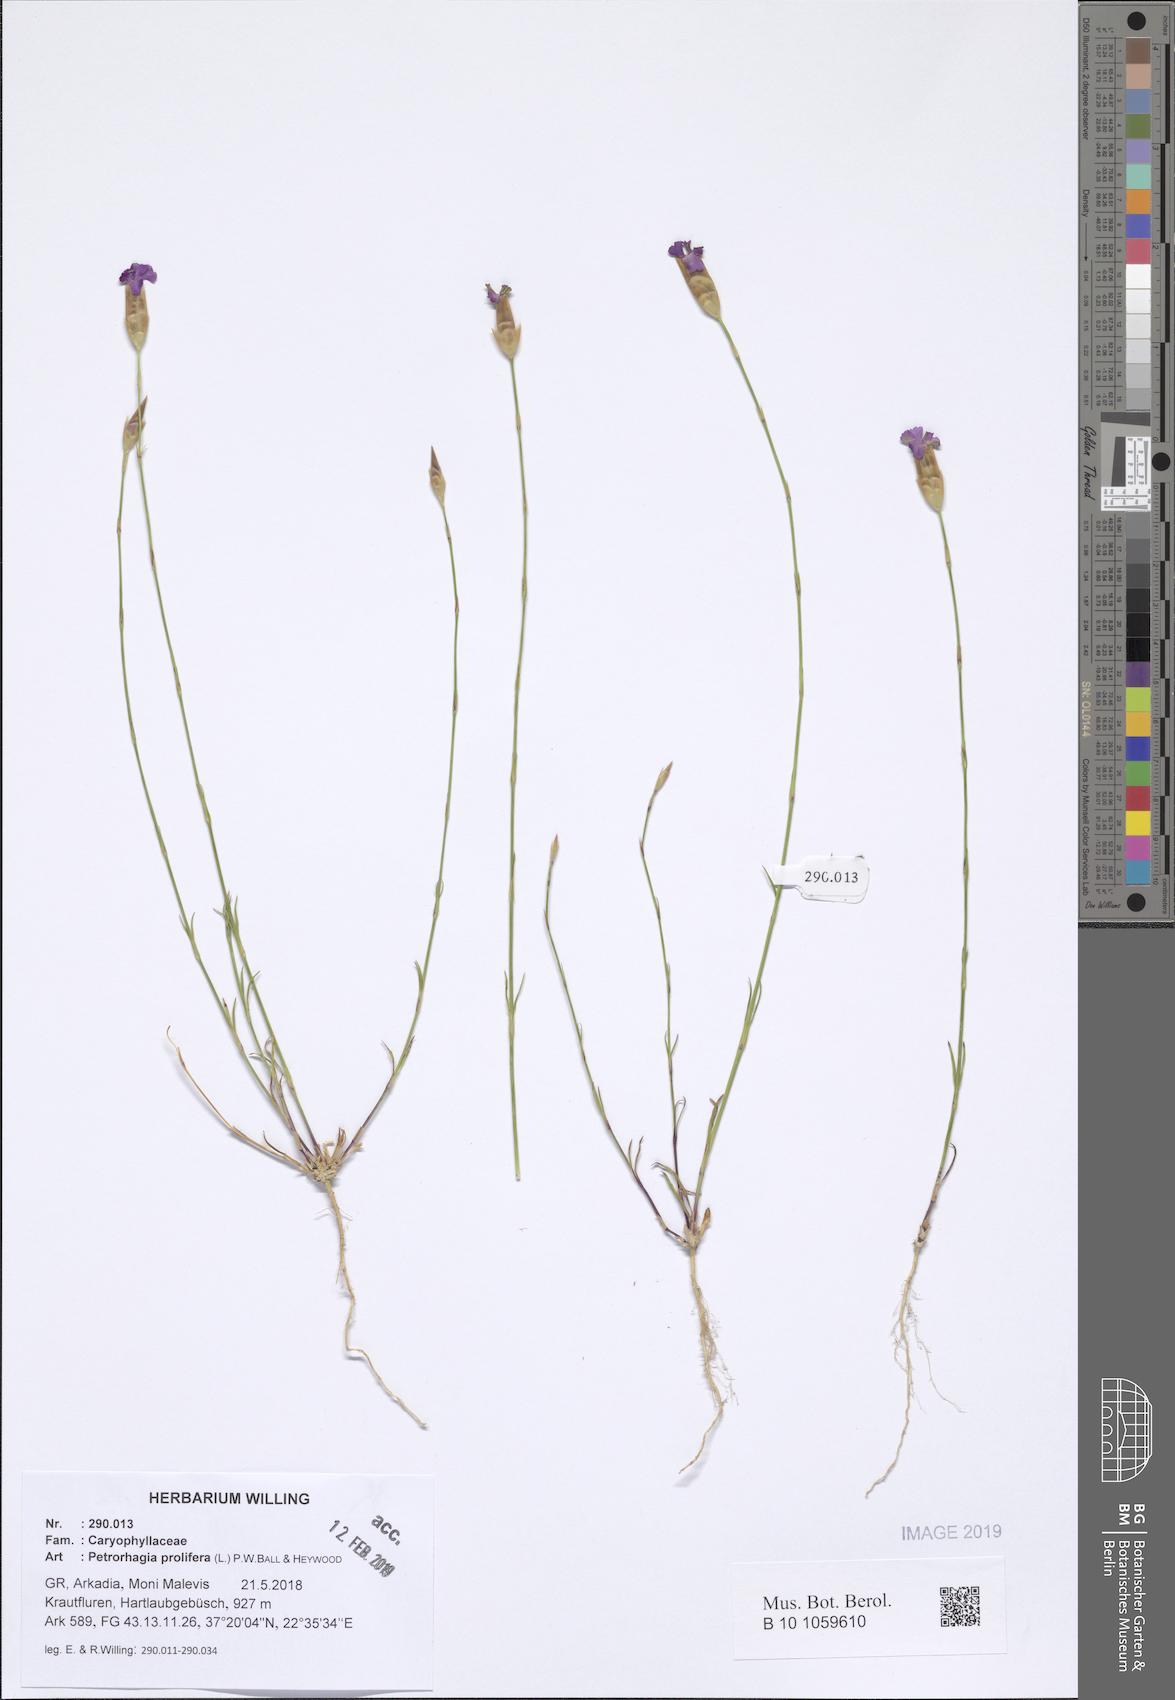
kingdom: Plantae
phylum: Tracheophyta
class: Magnoliopsida
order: Caryophyllales
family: Caryophyllaceae
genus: Petrorhagia
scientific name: Petrorhagia prolifera
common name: Proliferous pink
